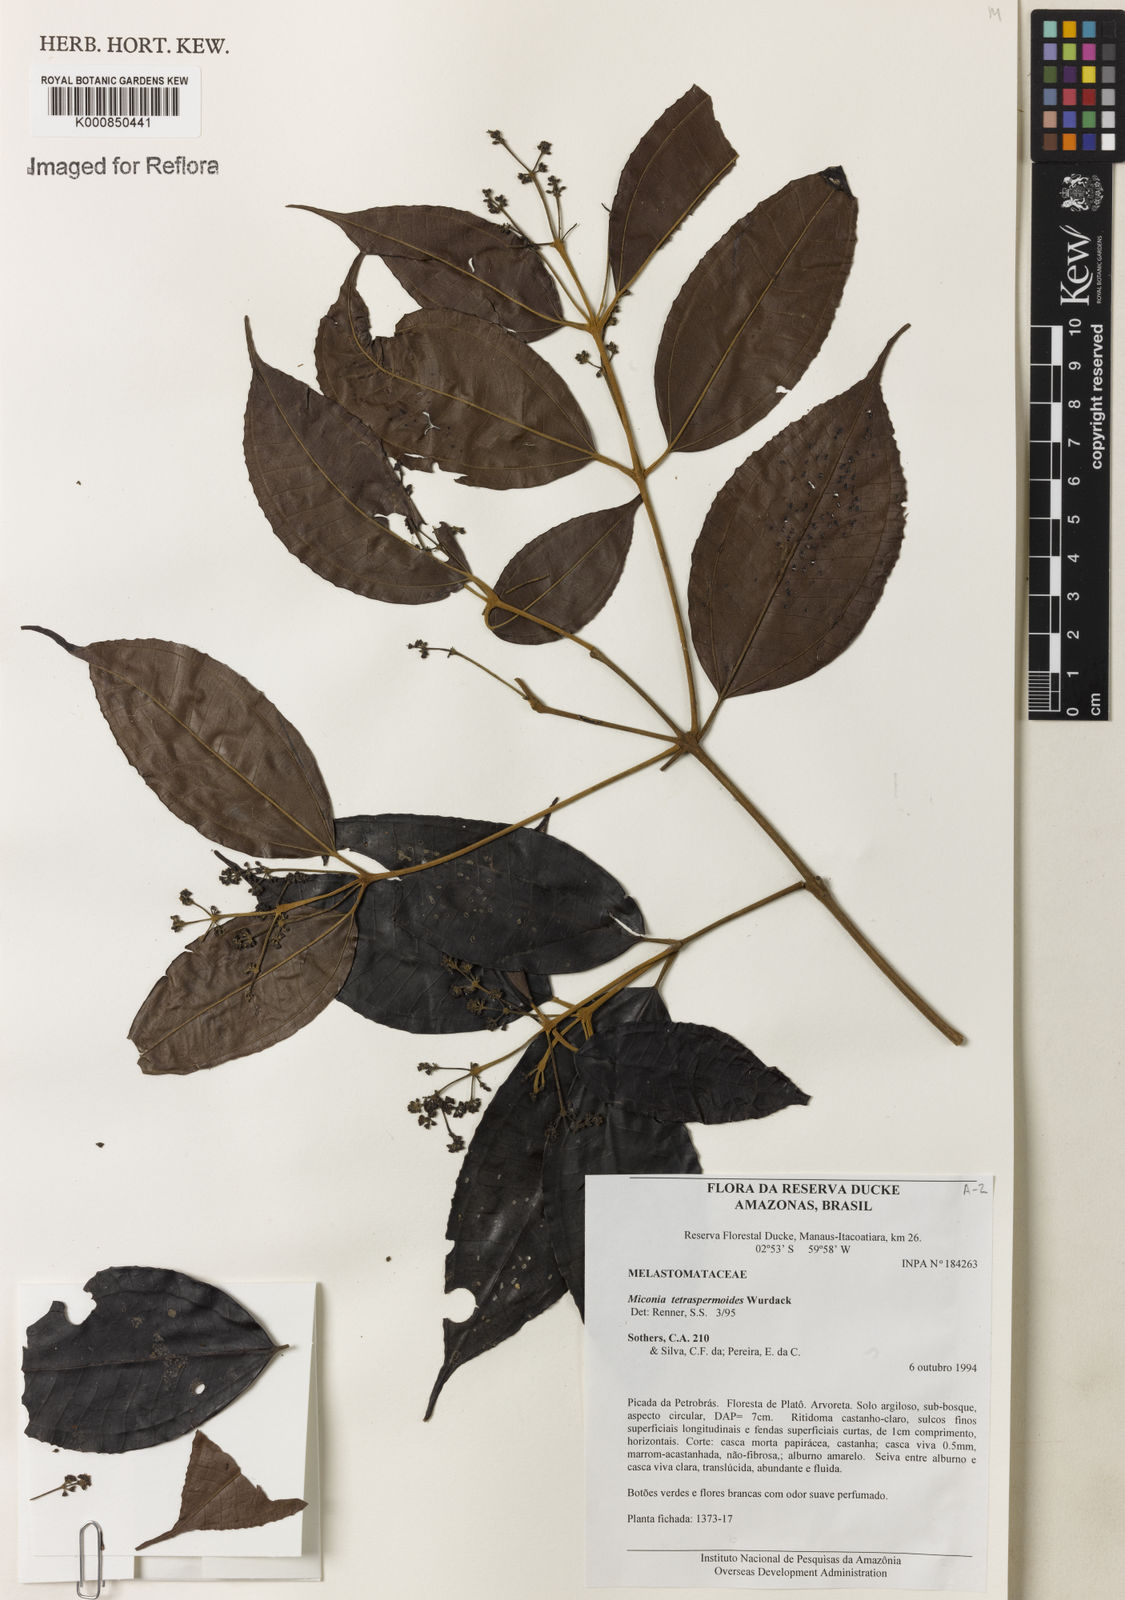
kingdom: Plantae
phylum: Tracheophyta
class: Magnoliopsida
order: Myrtales
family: Melastomataceae
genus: Miconia
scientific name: Miconia tetraspermoides
